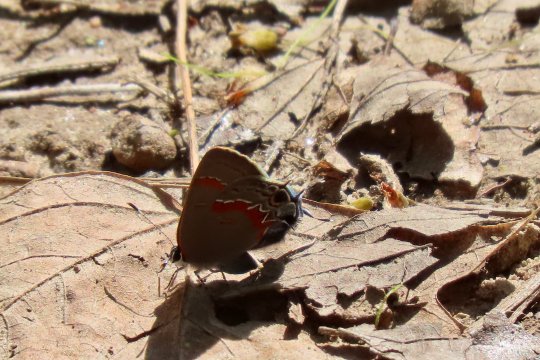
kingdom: Animalia
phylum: Arthropoda
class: Insecta
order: Lepidoptera
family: Lycaenidae
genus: Calycopis
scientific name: Calycopis cecrops
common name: Red-banded Hairstreak
